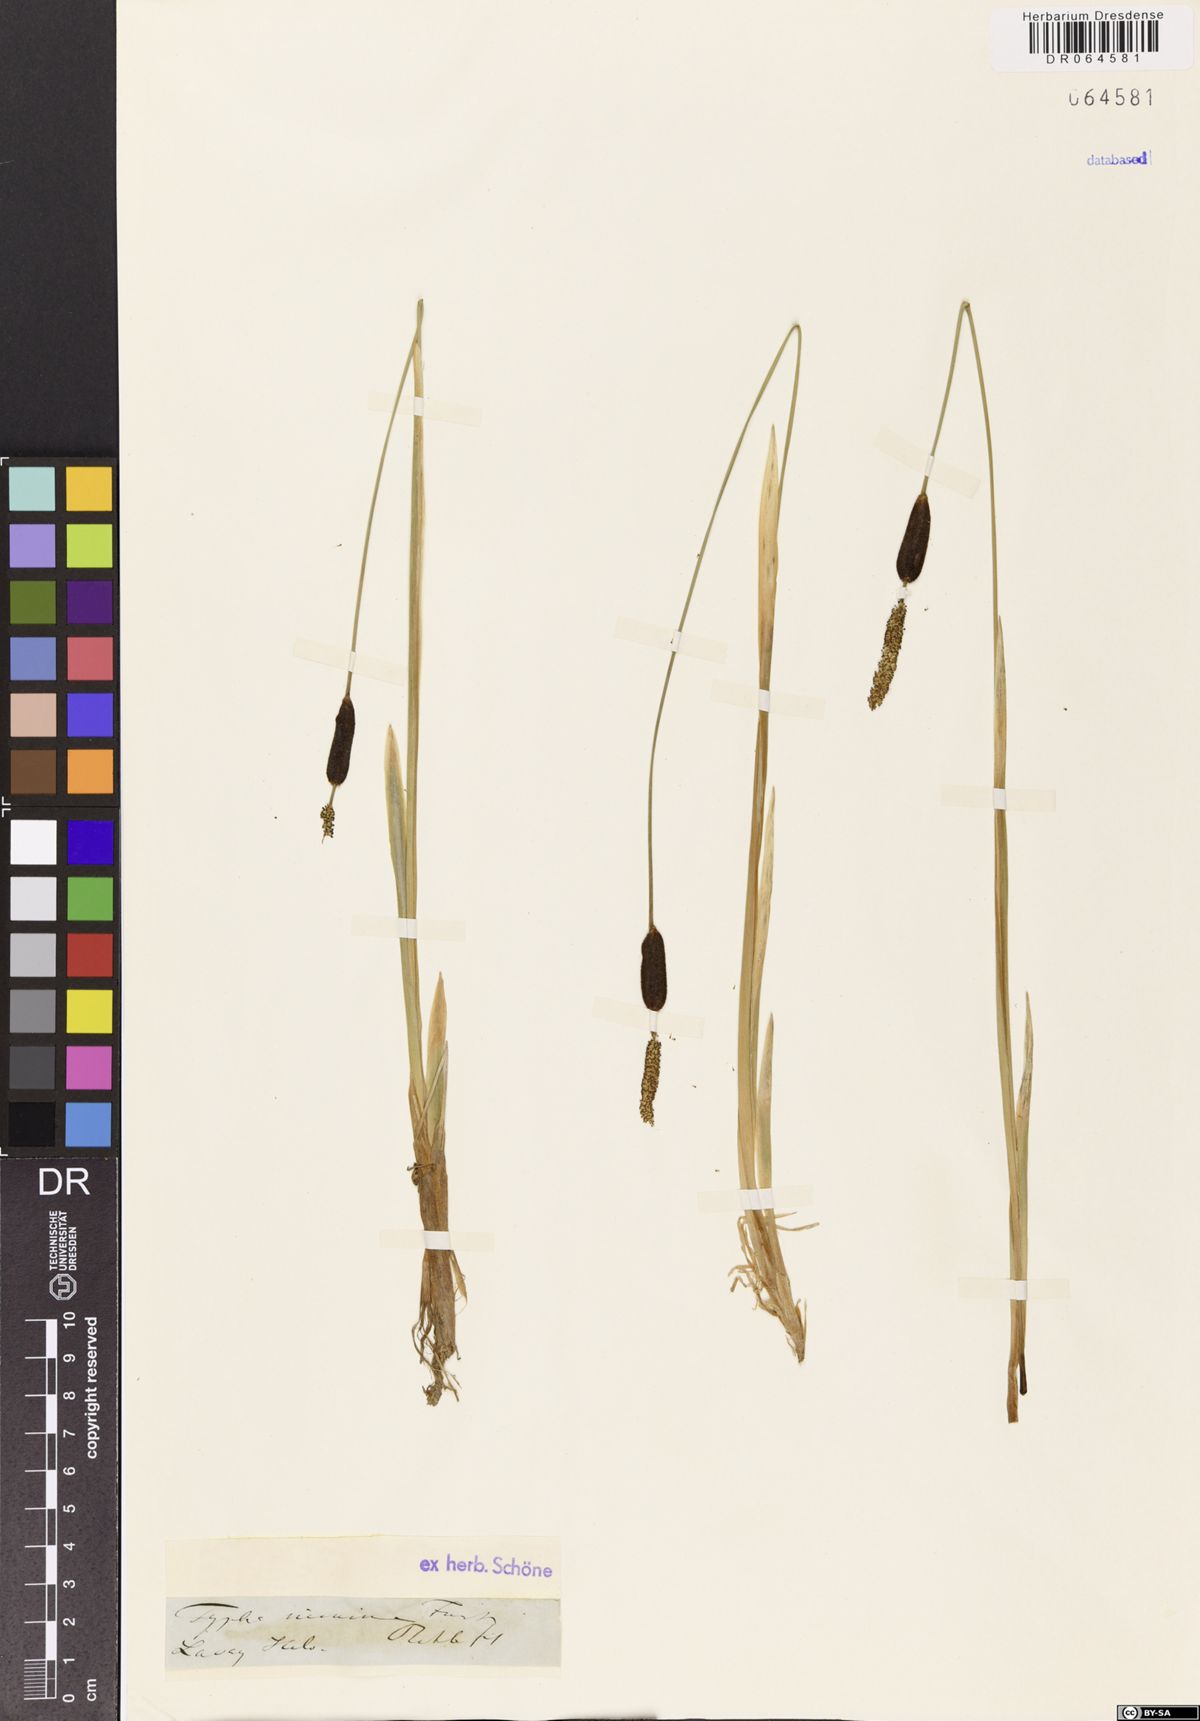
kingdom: Plantae
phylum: Tracheophyta
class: Liliopsida
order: Poales
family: Typhaceae
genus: Typha
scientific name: Typha minima
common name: Dwarf bulrush
